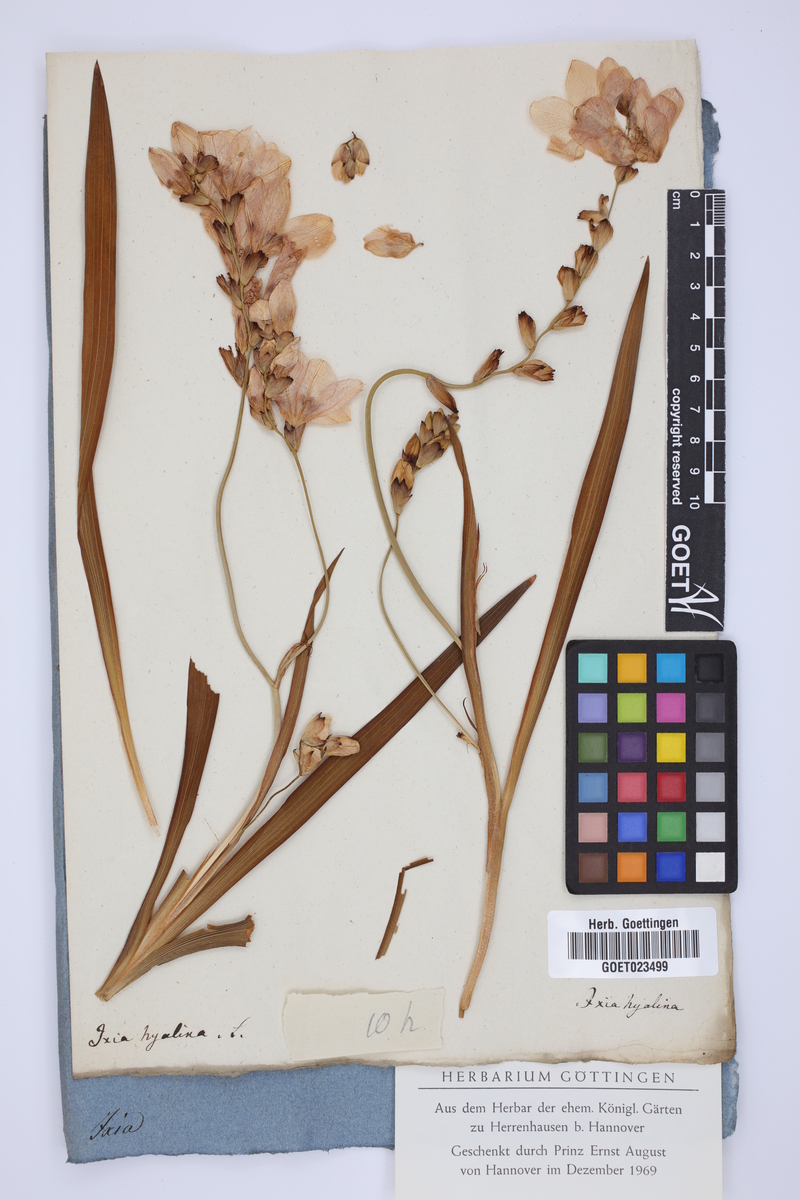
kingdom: Plantae
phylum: Tracheophyta
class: Liliopsida
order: Asparagales
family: Iridaceae
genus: Tritonia
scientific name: Tritonia crocata
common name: Flame-freesia
